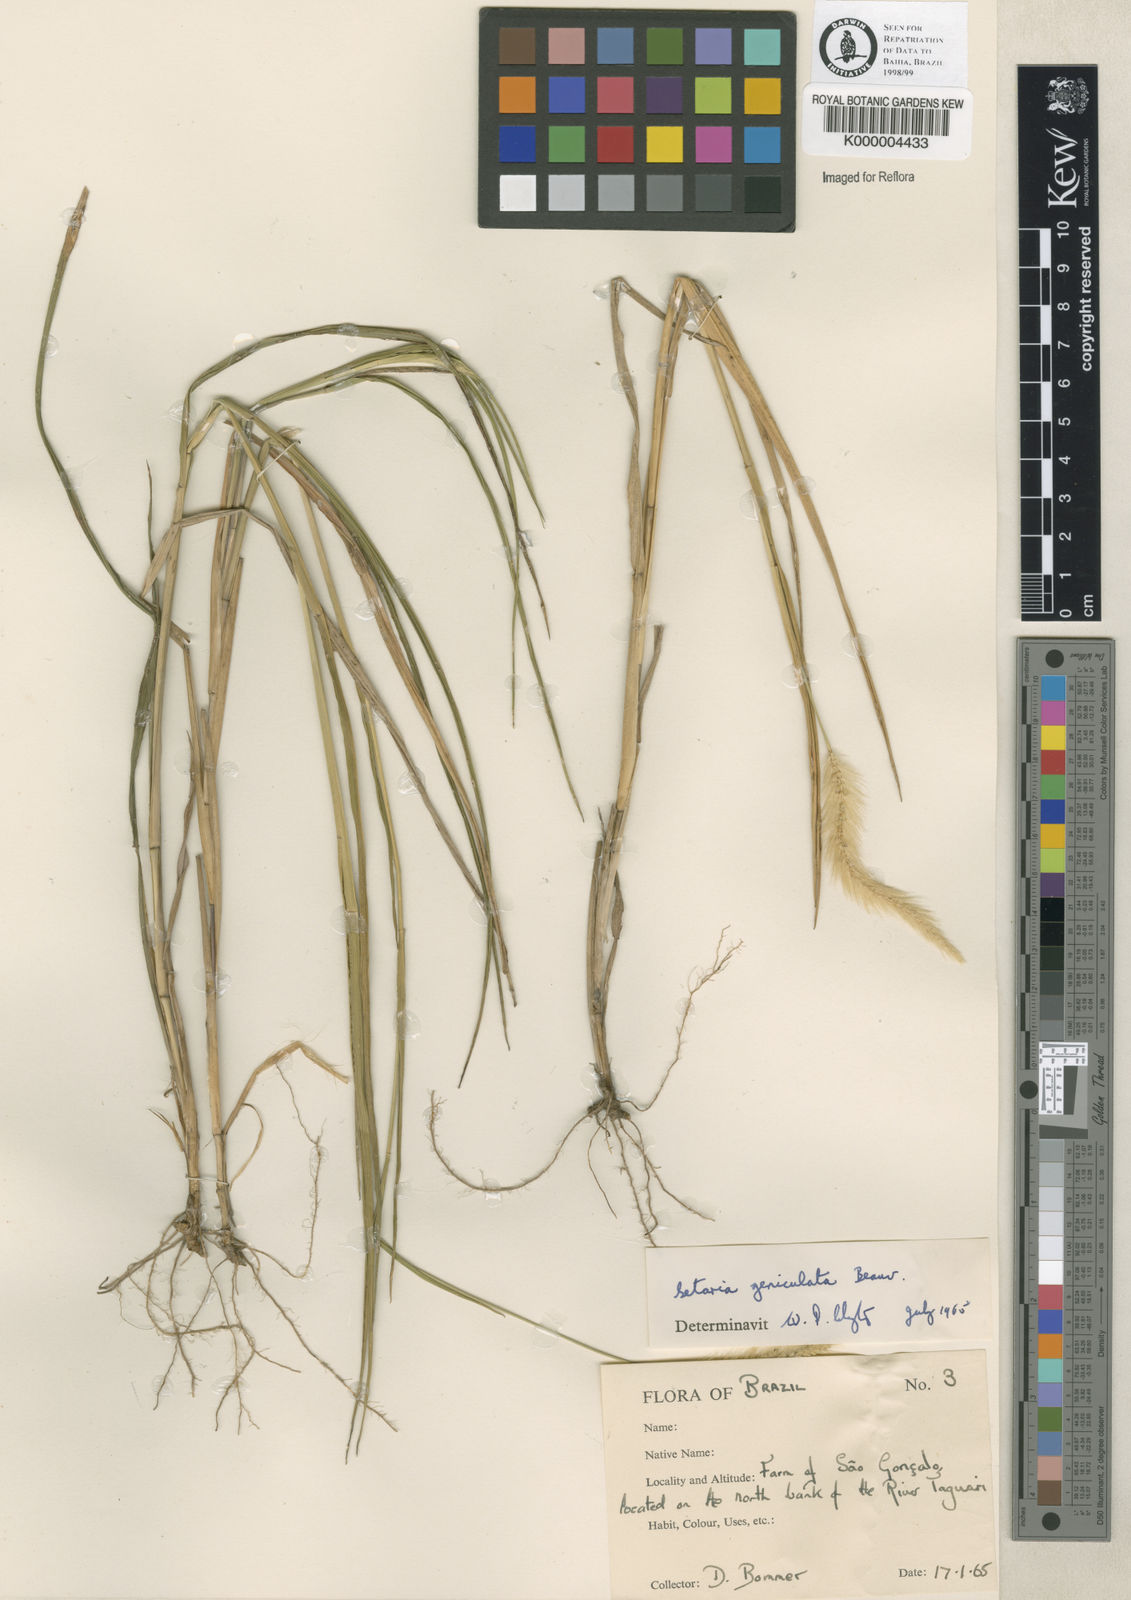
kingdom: Plantae
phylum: Tracheophyta
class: Liliopsida
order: Poales
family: Poaceae
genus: Setaria
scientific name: Setaria parviflora
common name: Knotroot bristle-grass
